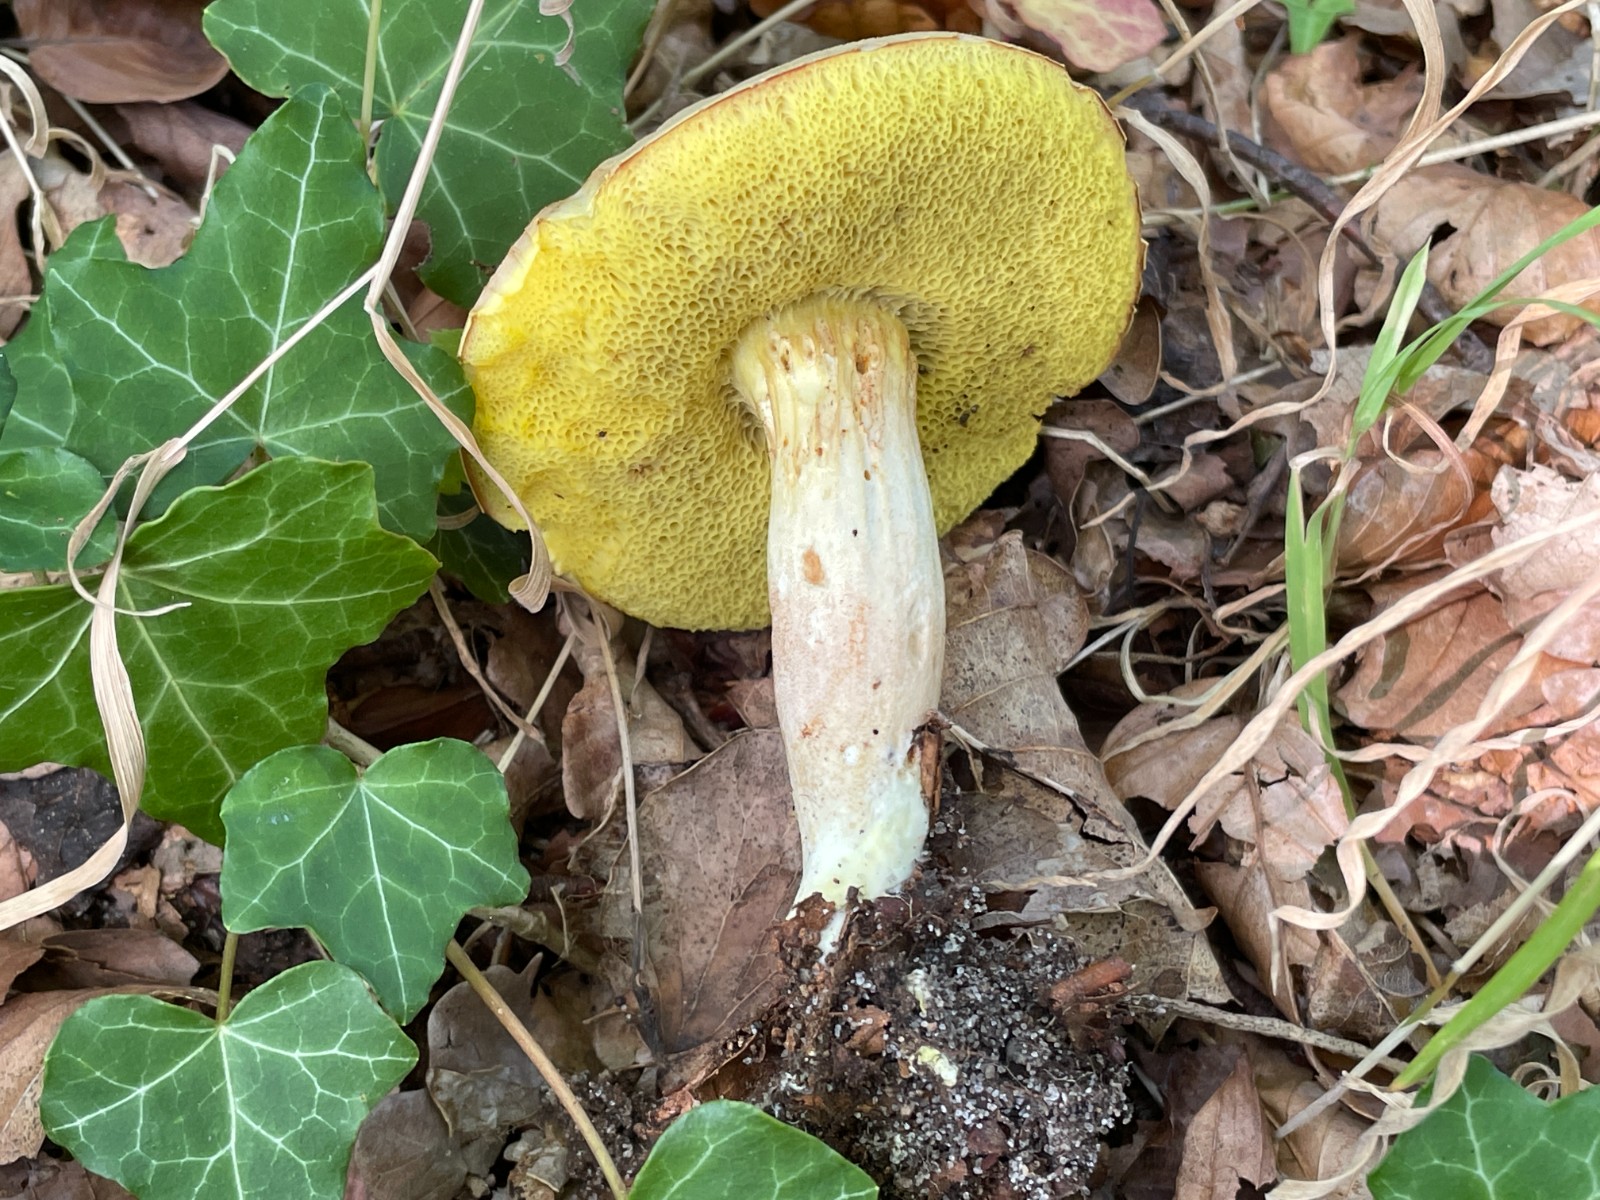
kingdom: Fungi
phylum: Basidiomycota
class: Agaricomycetes
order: Boletales
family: Boletaceae
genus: Xerocomus
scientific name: Xerocomus ferrugineus
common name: vaskeskinds-rørhat
